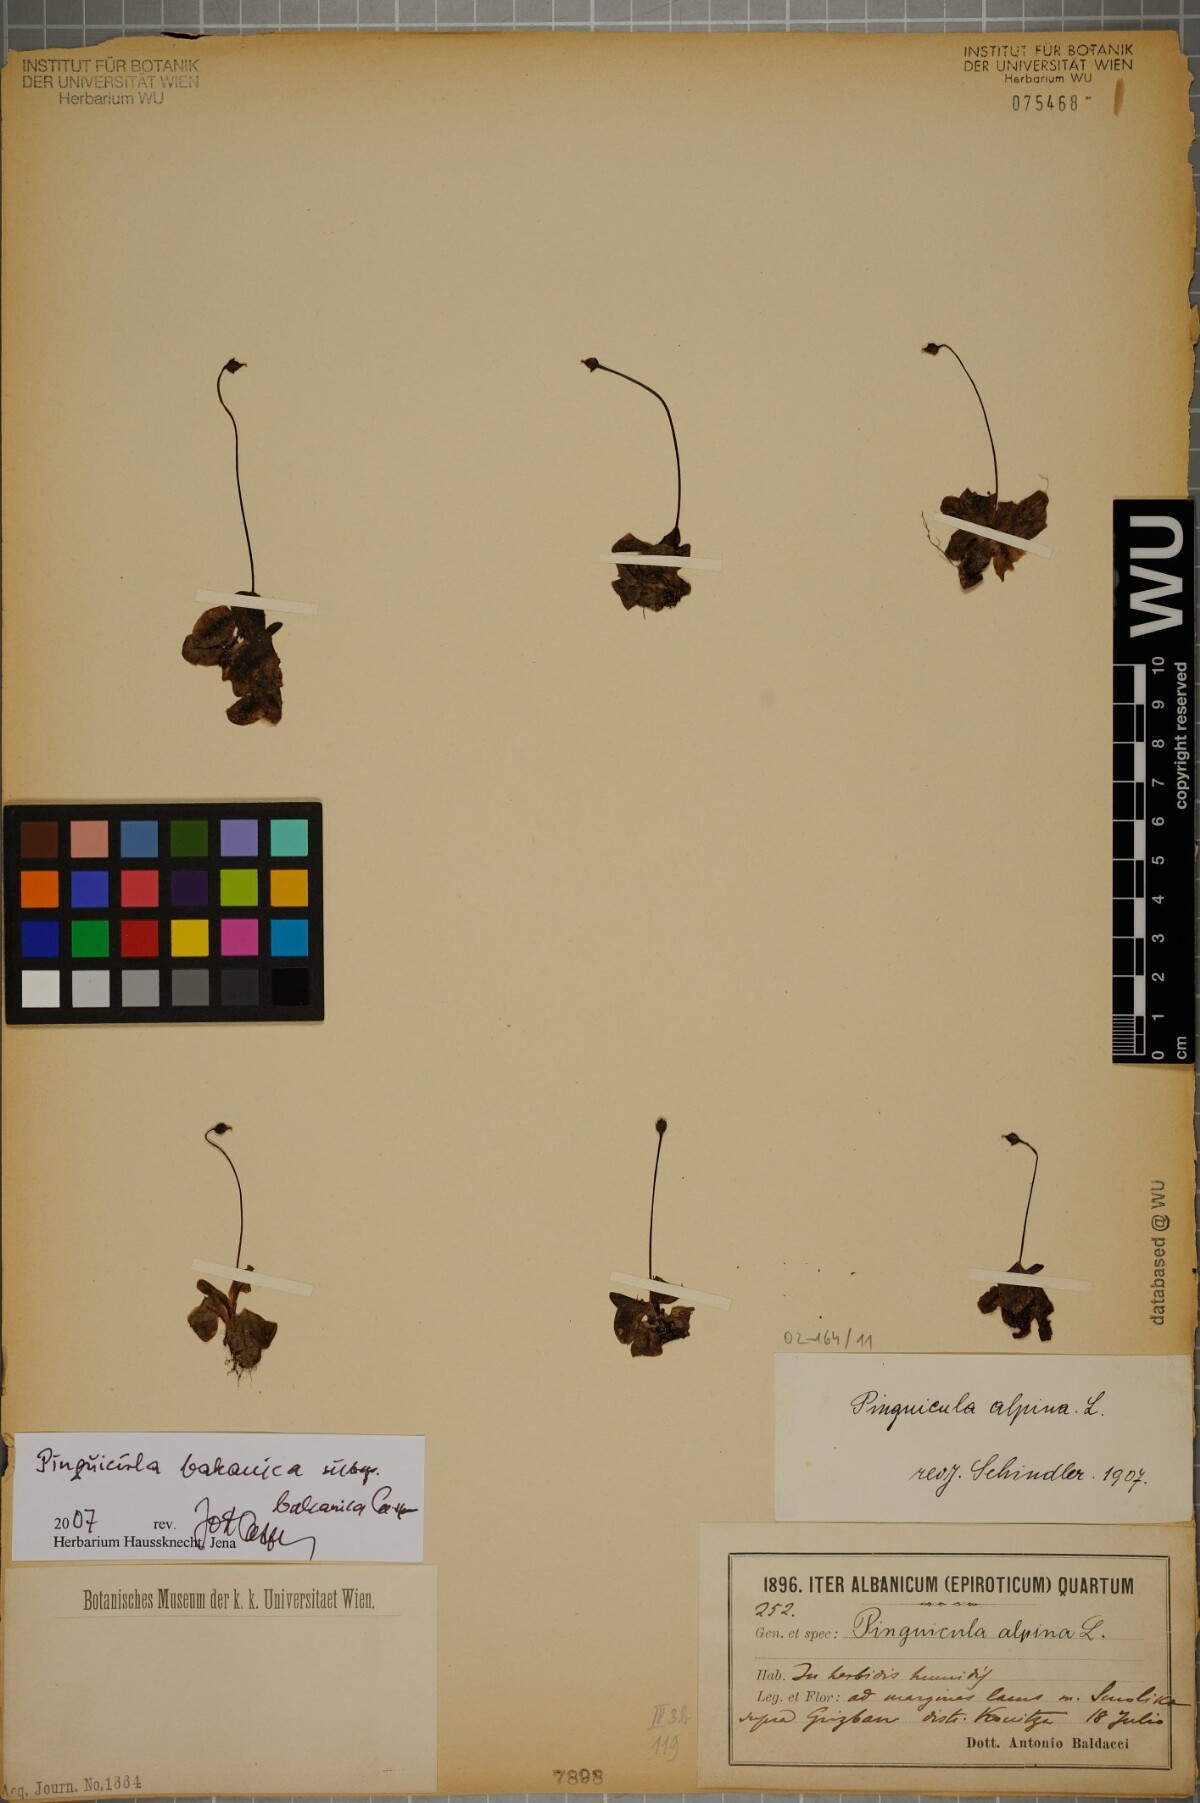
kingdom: Plantae
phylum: Tracheophyta
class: Magnoliopsida
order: Lamiales
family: Lentibulariaceae
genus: Pinguicula
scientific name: Pinguicula balcanica
